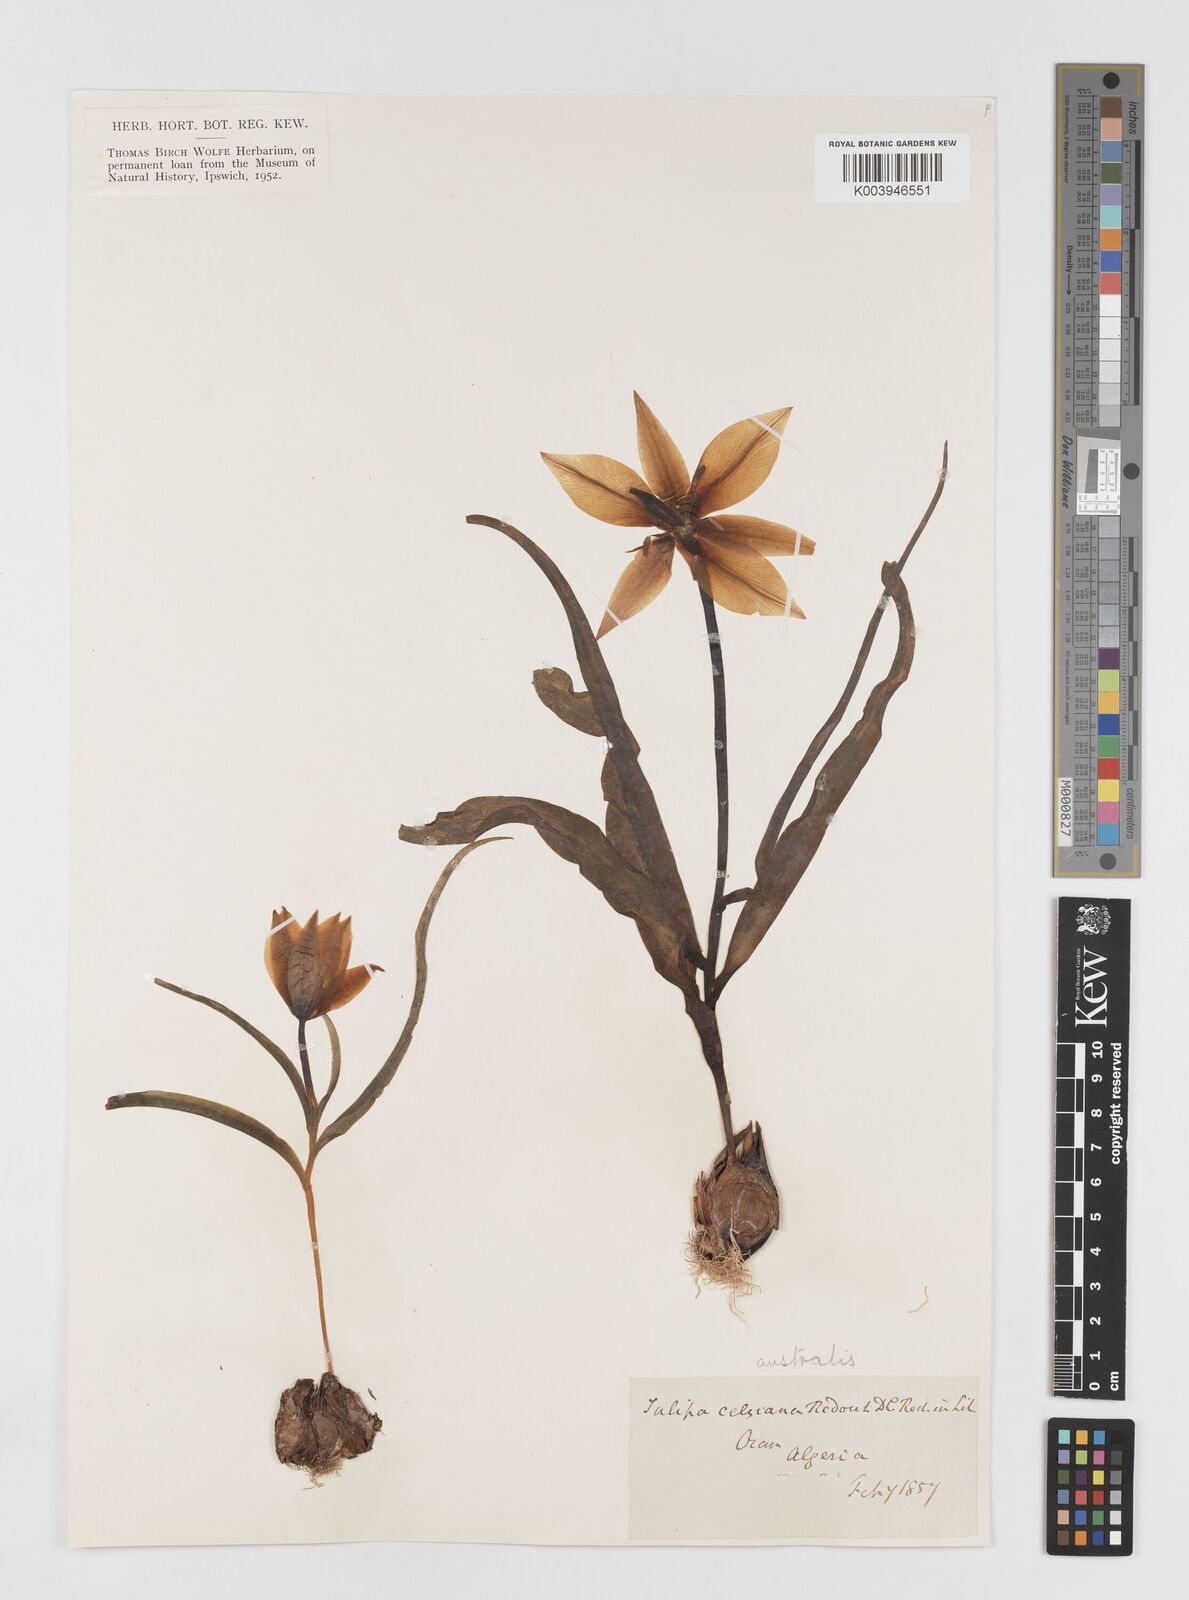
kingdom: Plantae
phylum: Tracheophyta
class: Liliopsida
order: Liliales
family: Liliaceae
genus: Tulipa
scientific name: Tulipa sylvestris
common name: Wild tulip
